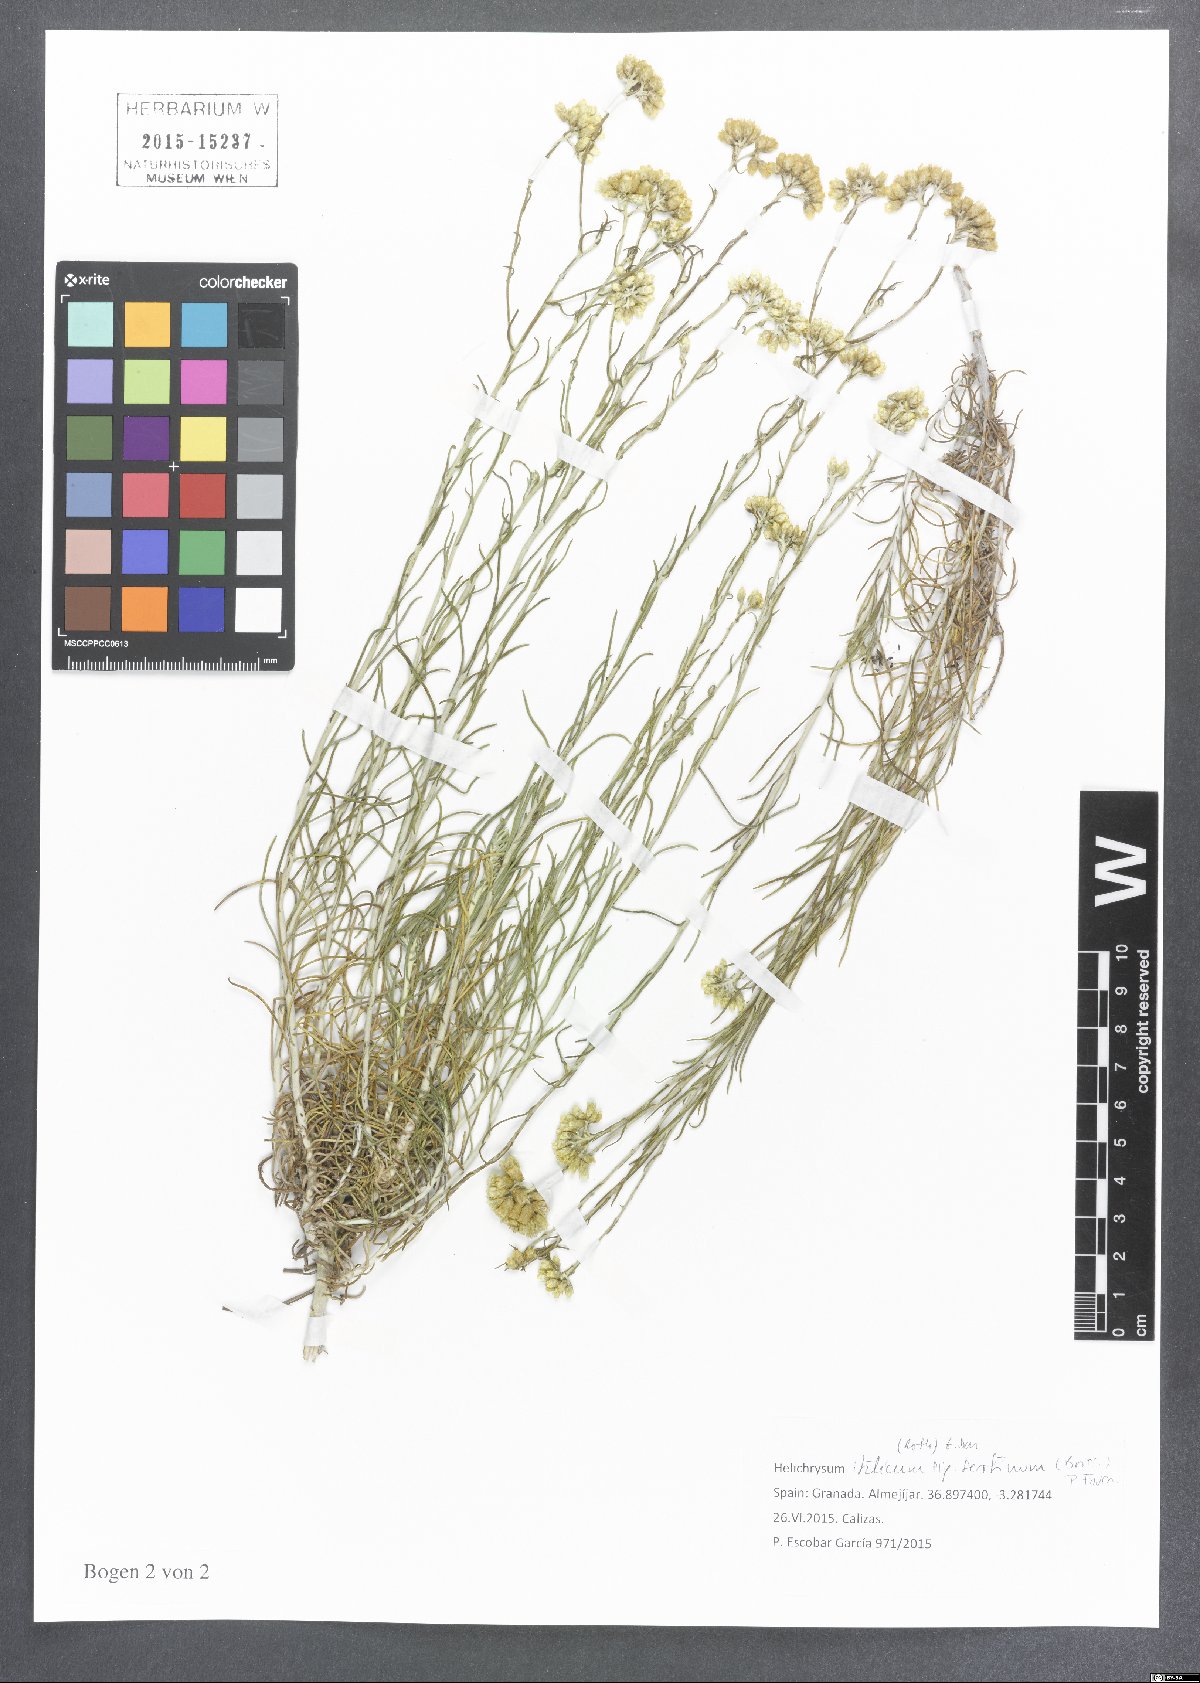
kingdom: Plantae
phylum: Tracheophyta
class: Magnoliopsida
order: Asterales
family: Asteraceae
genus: Helichrysum
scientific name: Helichrysum serotinum
